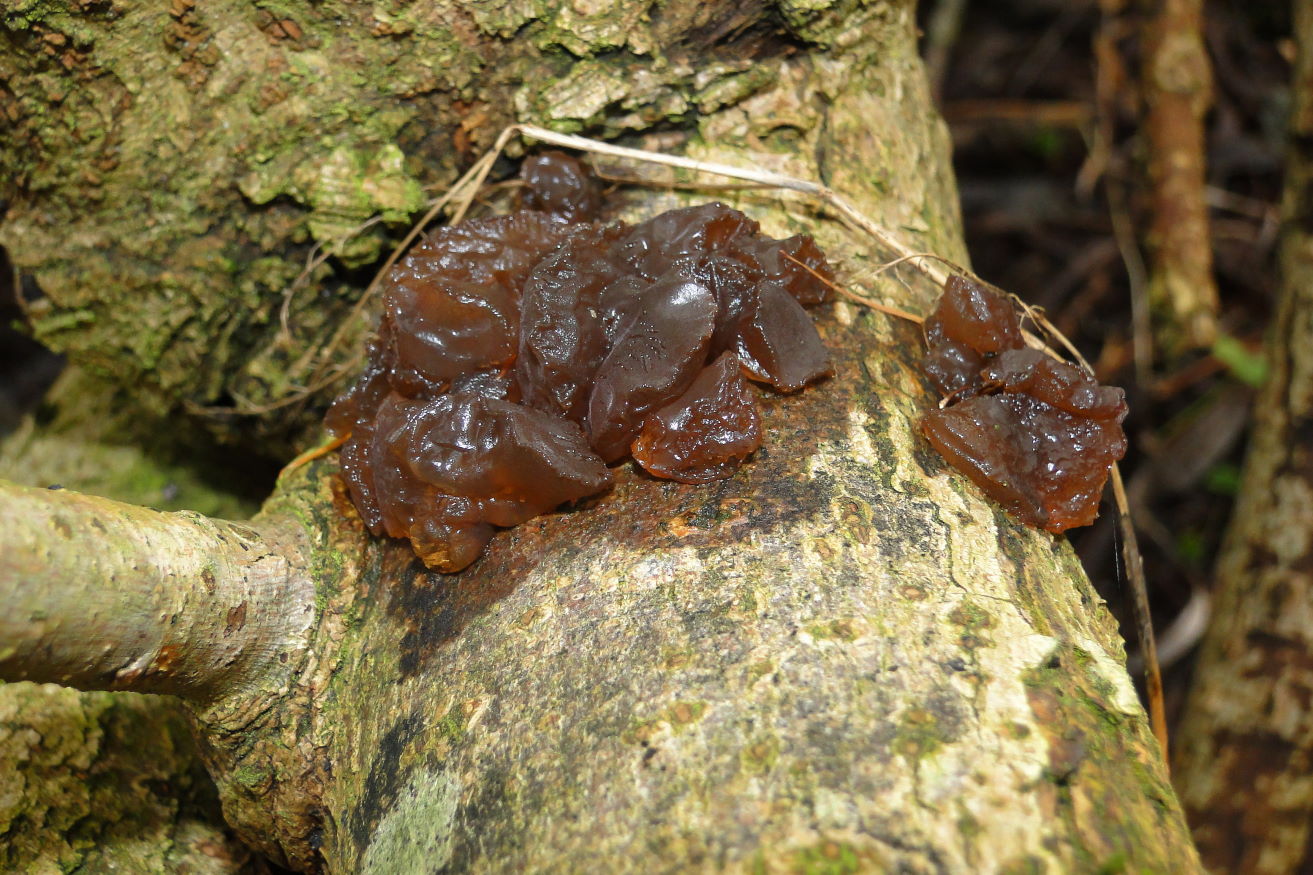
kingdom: Fungi
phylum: Basidiomycota
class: Agaricomycetes
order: Auriculariales
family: Auriculariaceae
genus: Exidia
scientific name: Exidia recisa
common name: pile-bævretop
